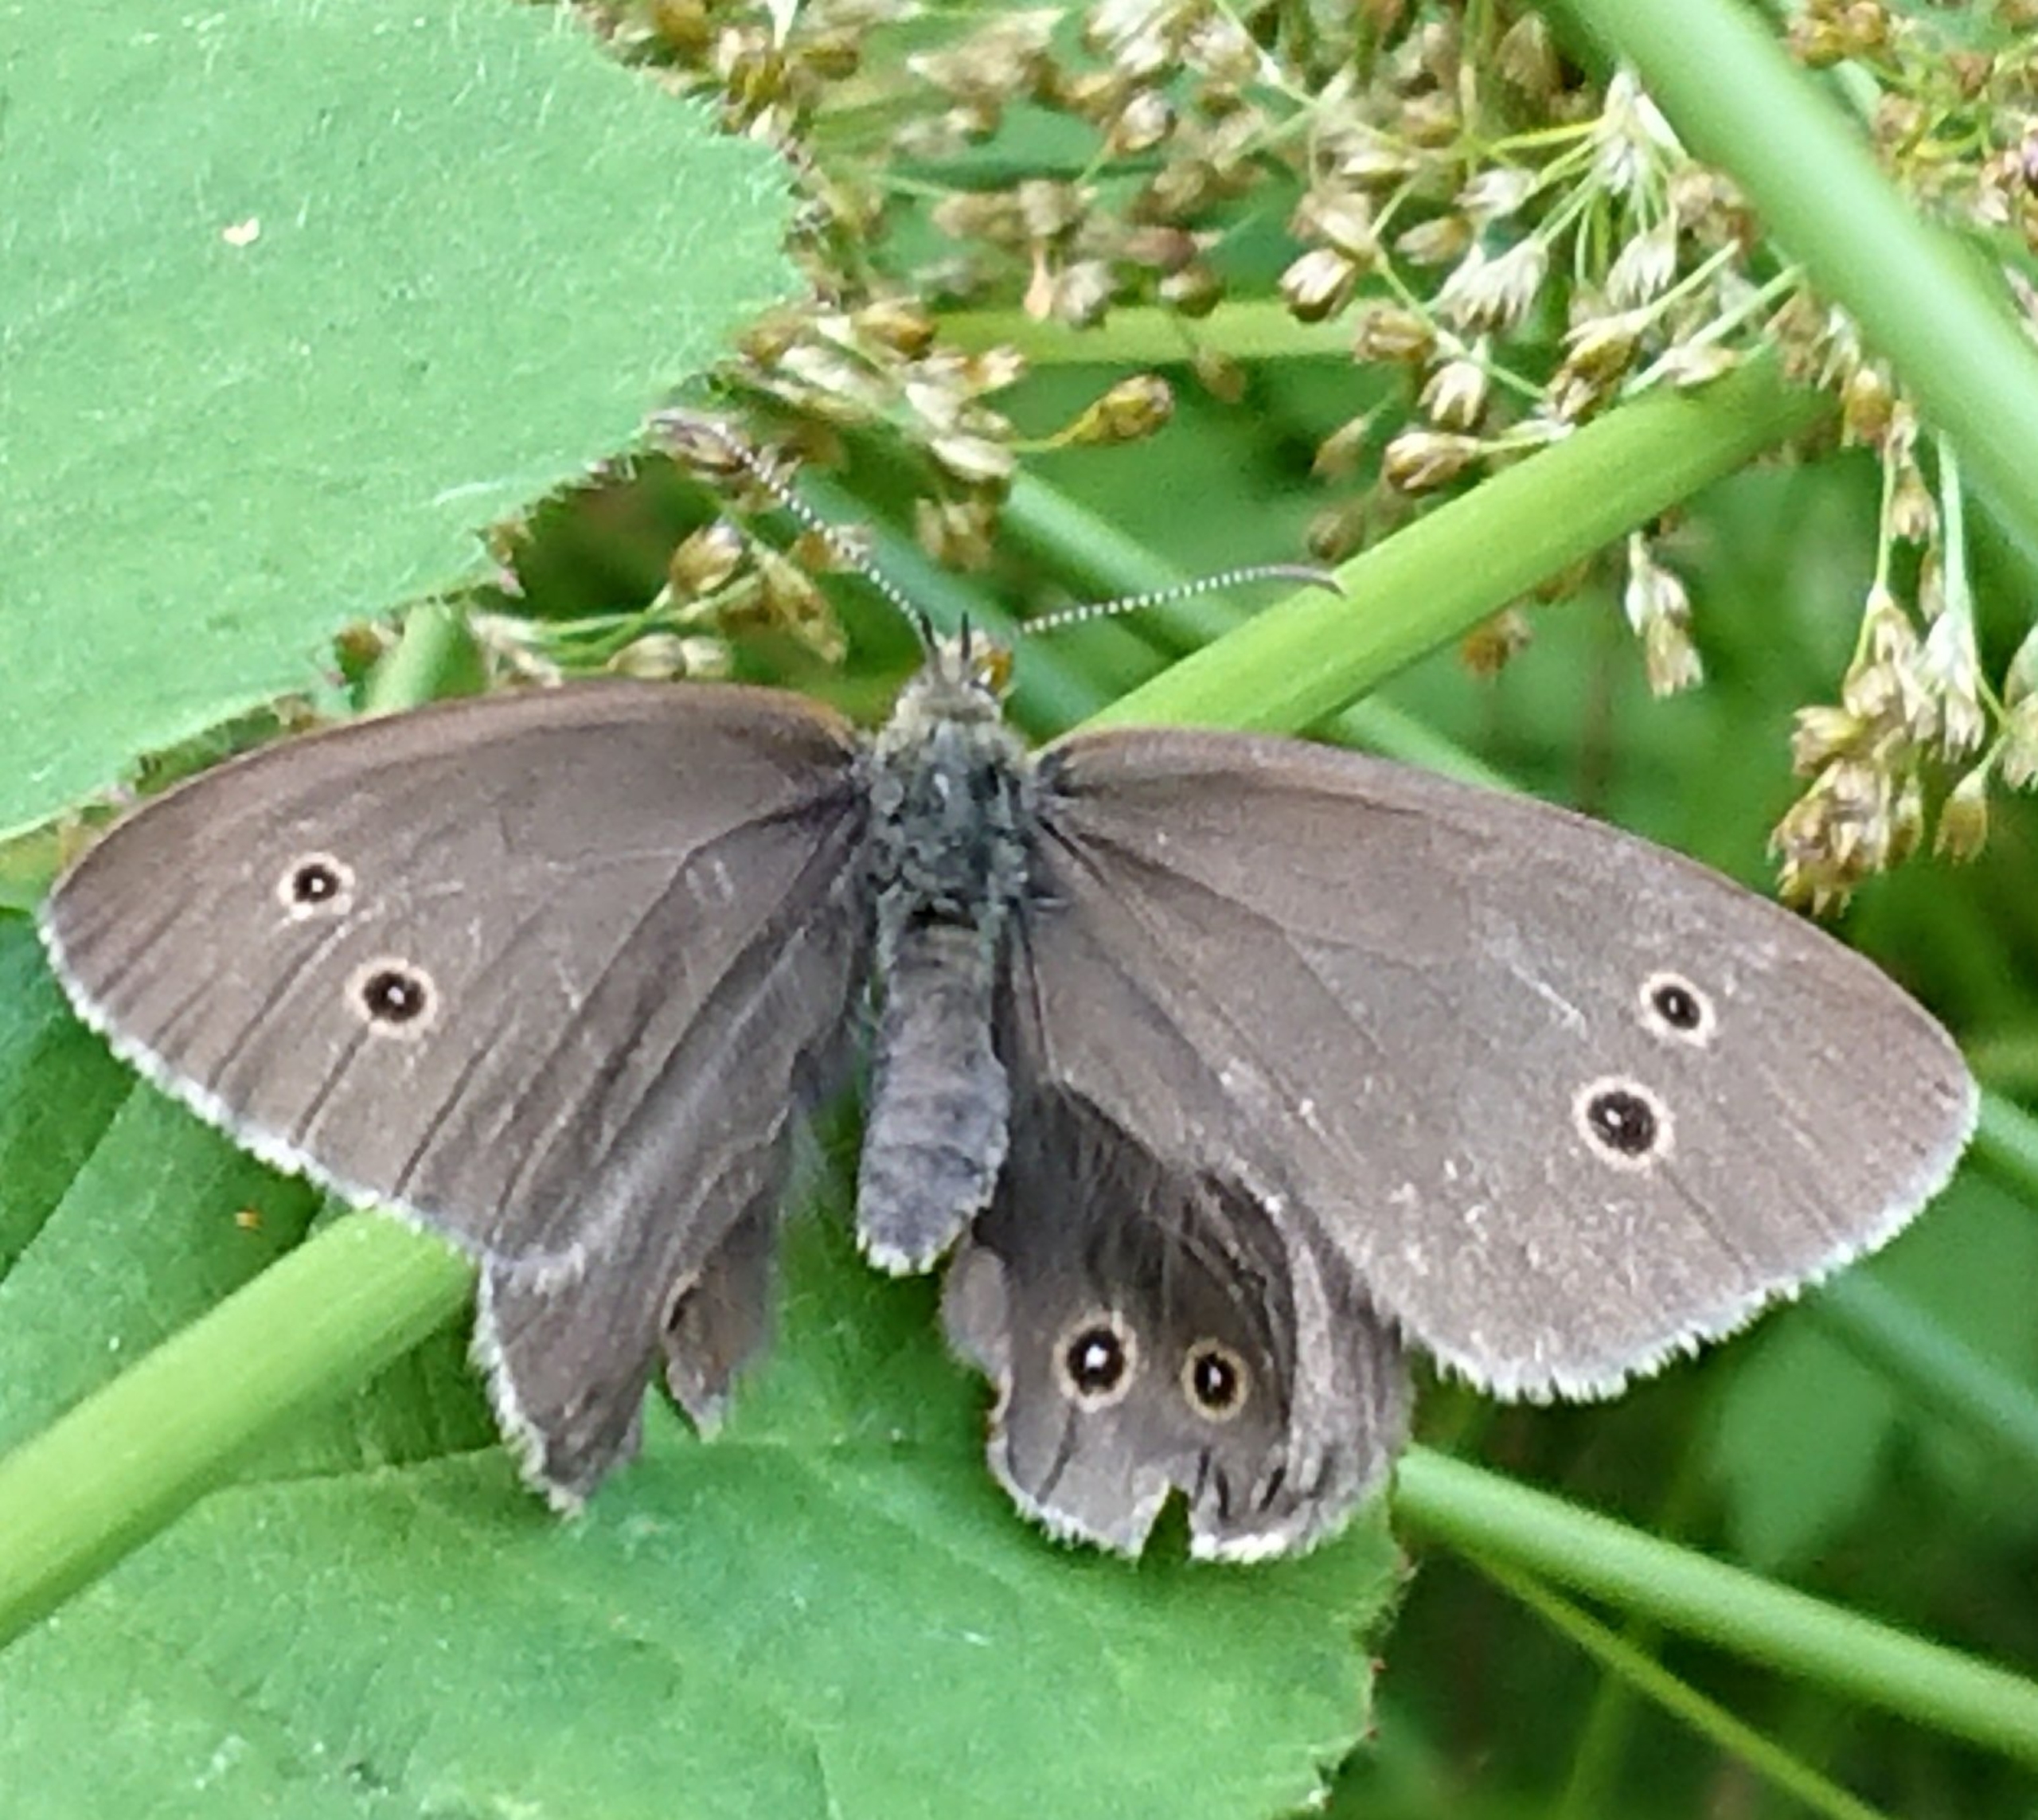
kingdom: Animalia
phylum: Arthropoda
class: Insecta
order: Lepidoptera
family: Nymphalidae
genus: Aphantopus
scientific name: Aphantopus hyperantus
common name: Engrandøje
